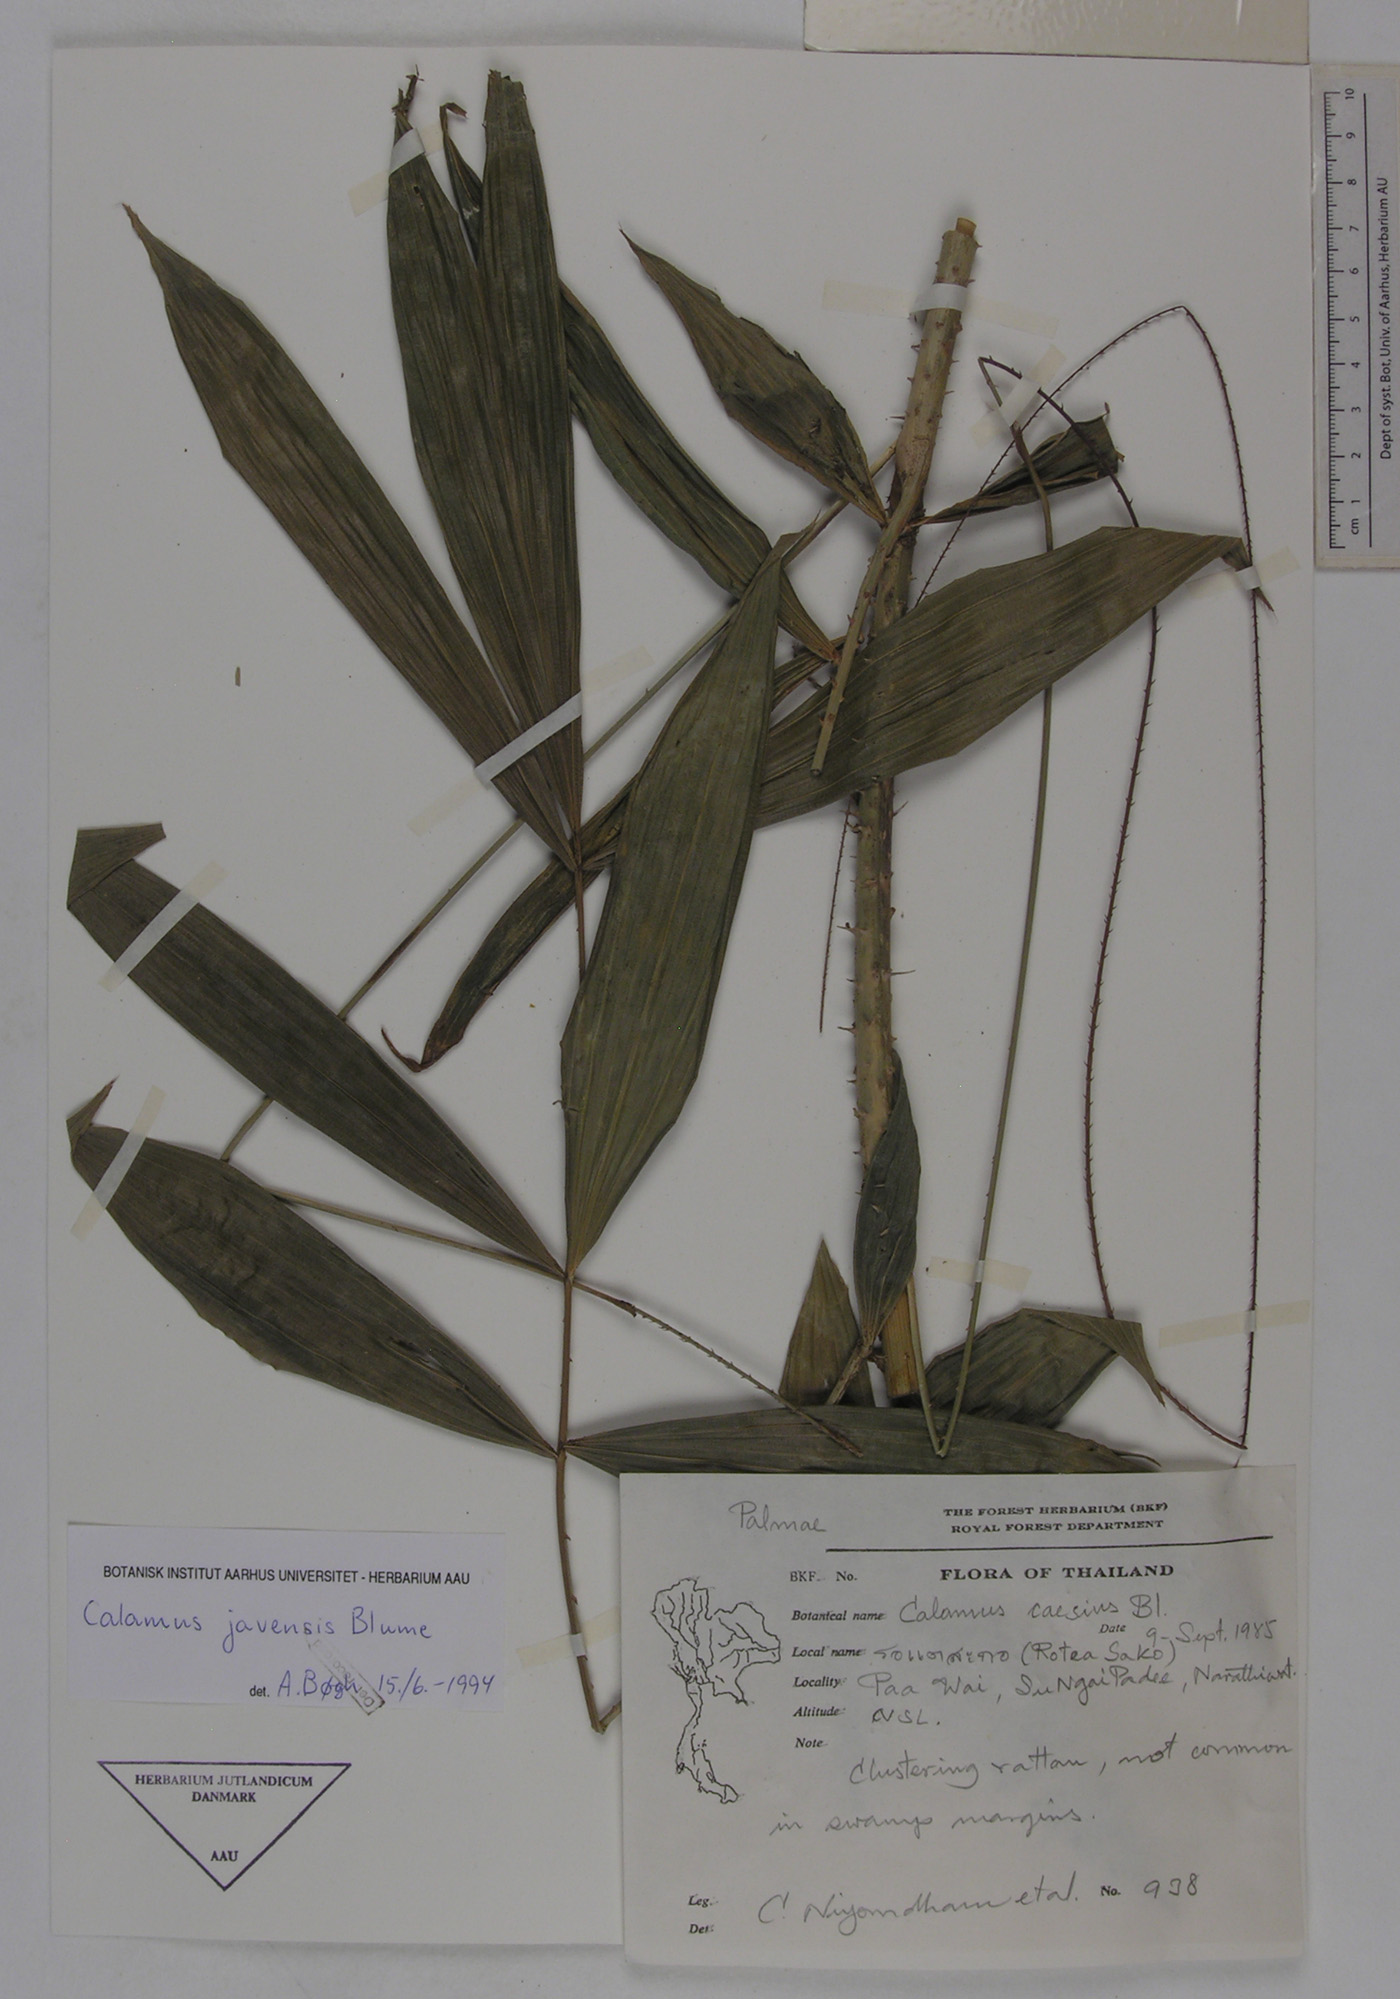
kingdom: Plantae
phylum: Tracheophyta
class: Liliopsida
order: Arecales
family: Arecaceae
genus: Calamus
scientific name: Calamus javensis
